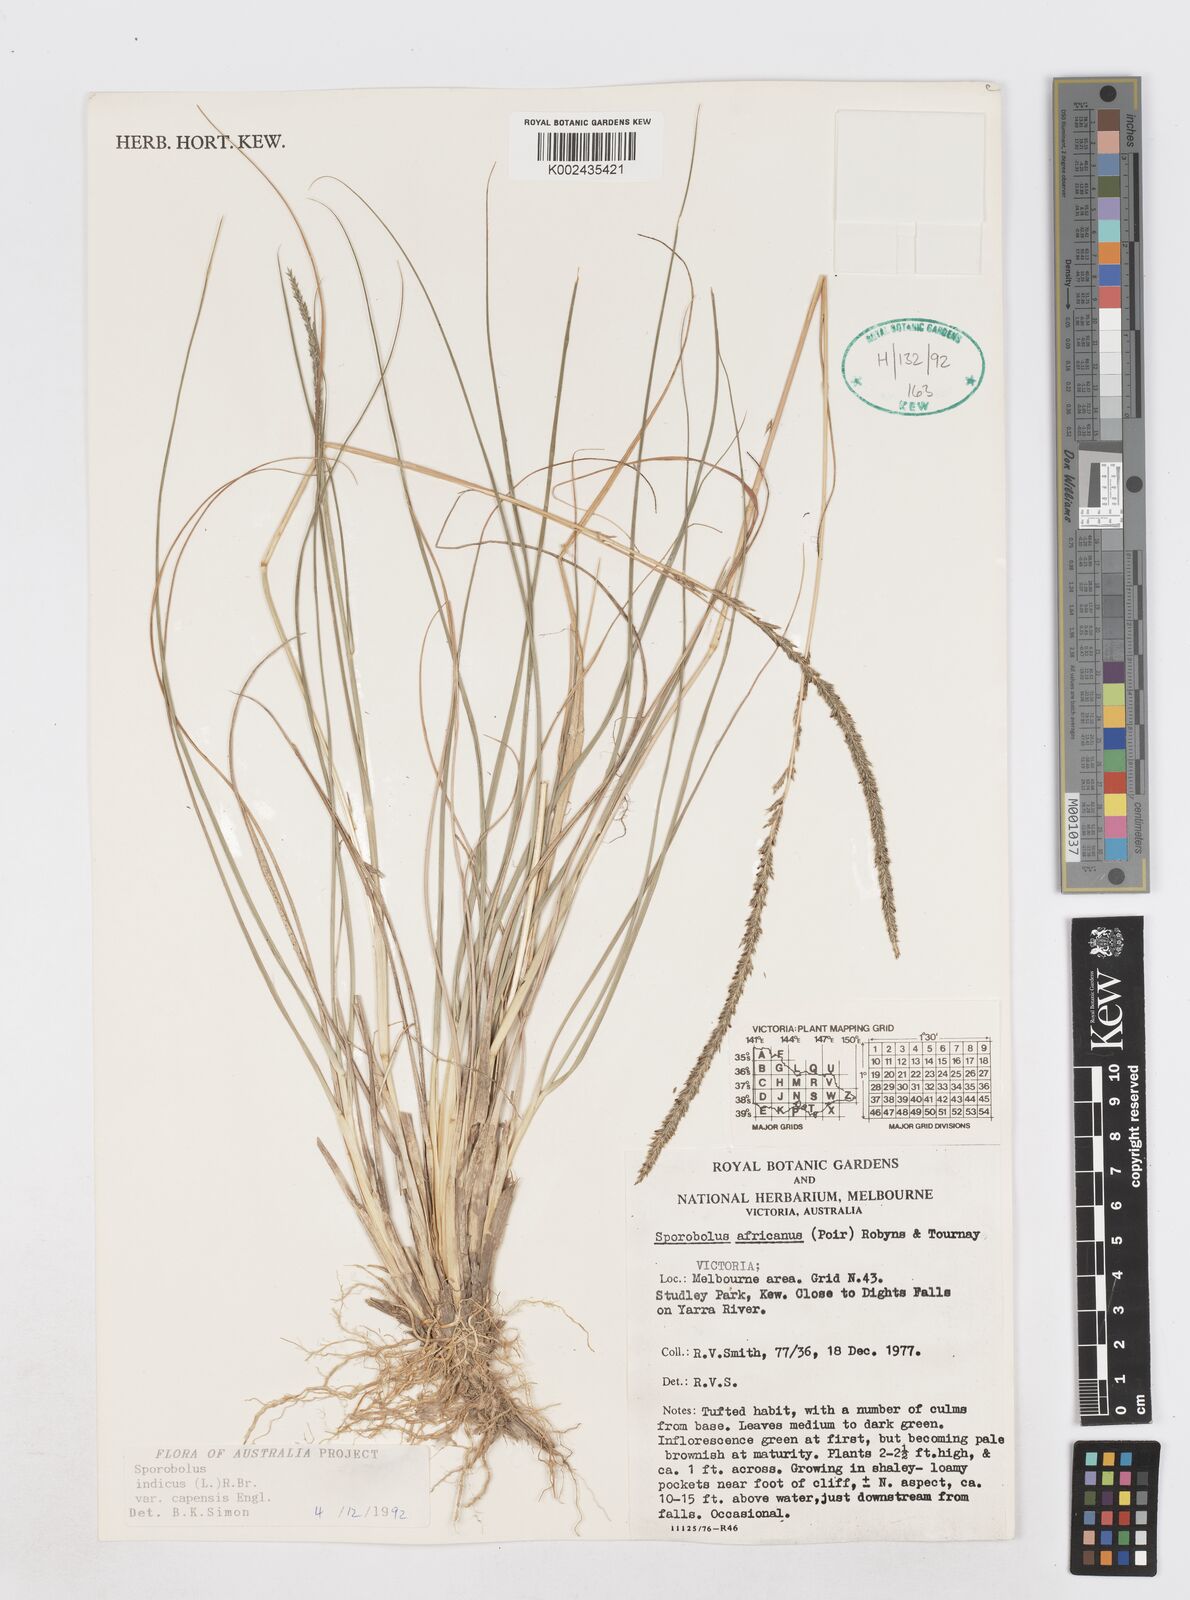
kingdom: Plantae
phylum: Tracheophyta
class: Liliopsida
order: Poales
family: Poaceae
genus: Sporobolus
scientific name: Sporobolus africanus
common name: African dropseed
